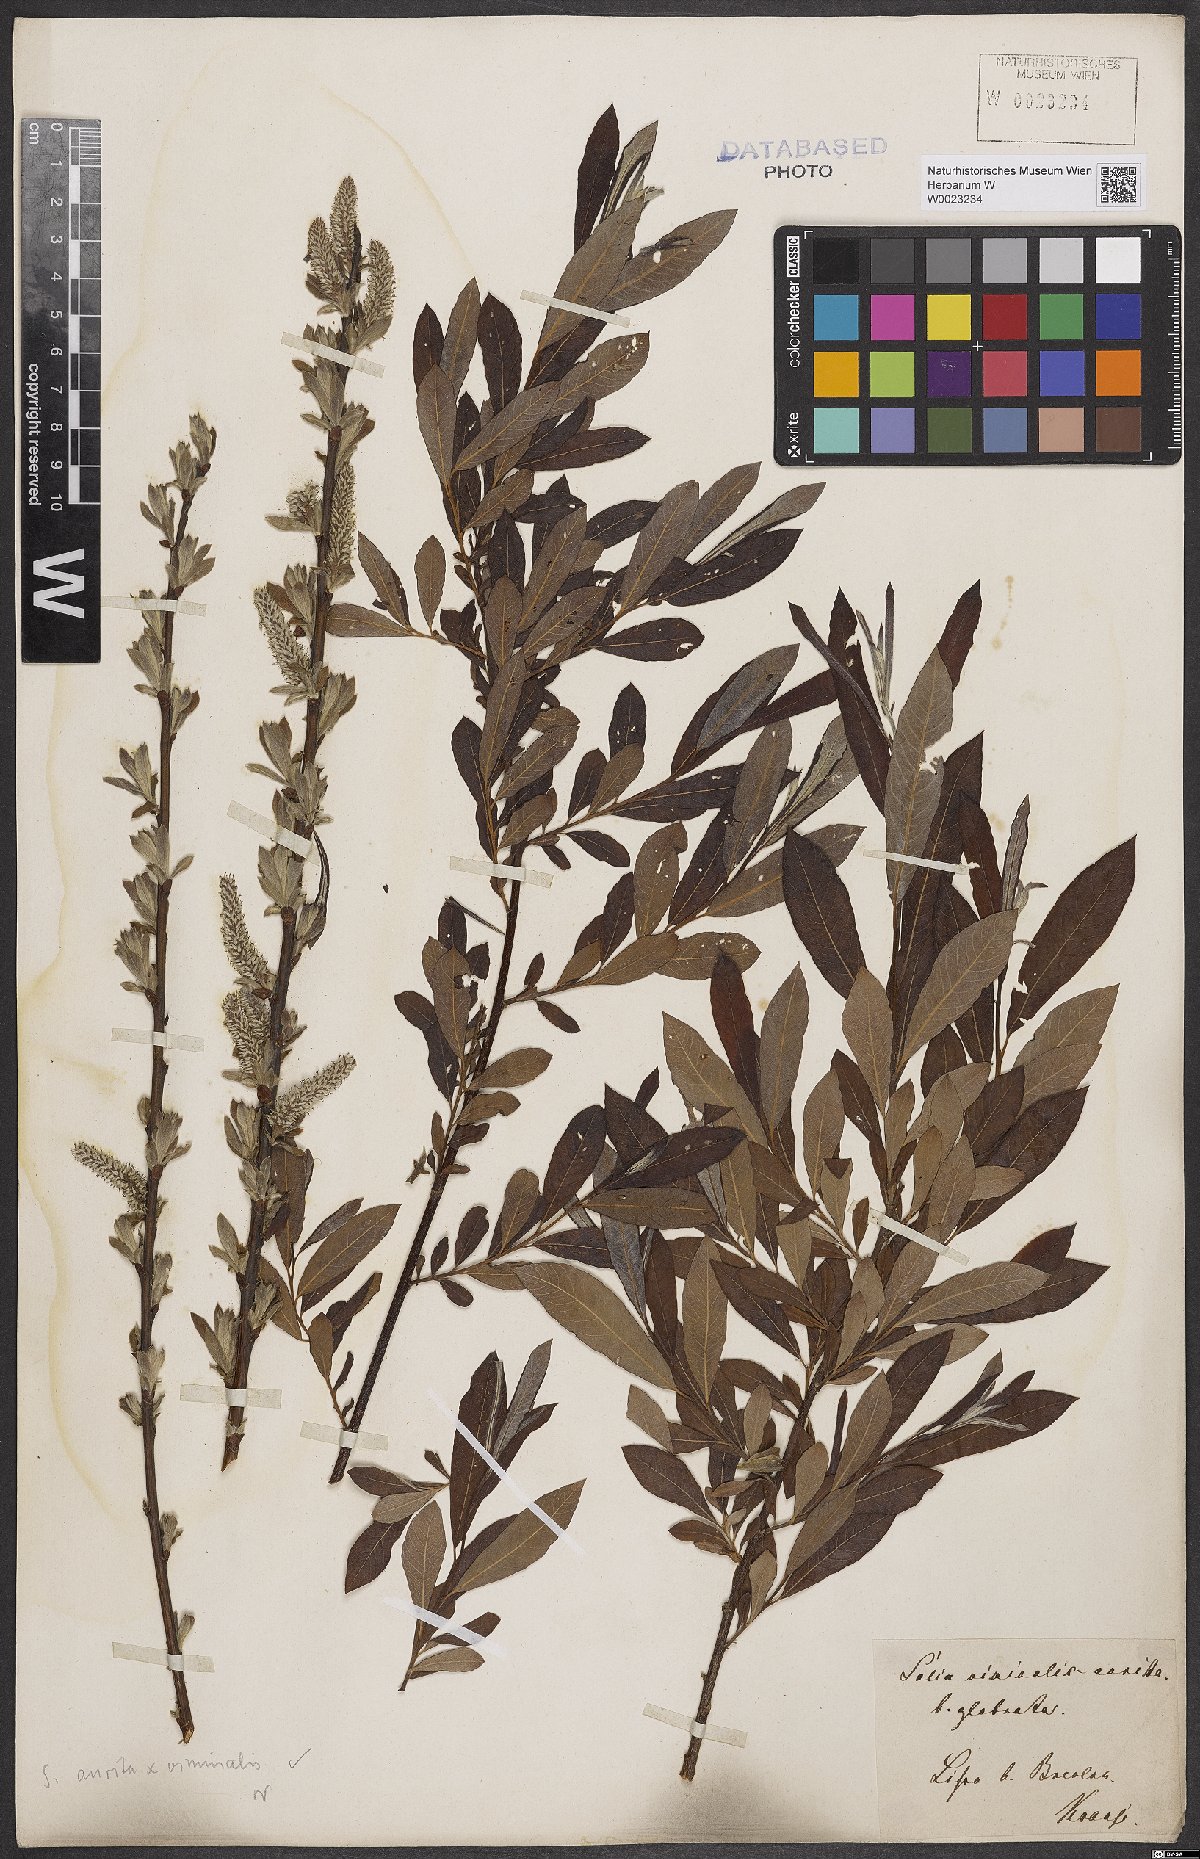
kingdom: Plantae
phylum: Tracheophyta
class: Magnoliopsida
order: Malpighiales
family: Salicaceae
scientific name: Salicaceae
